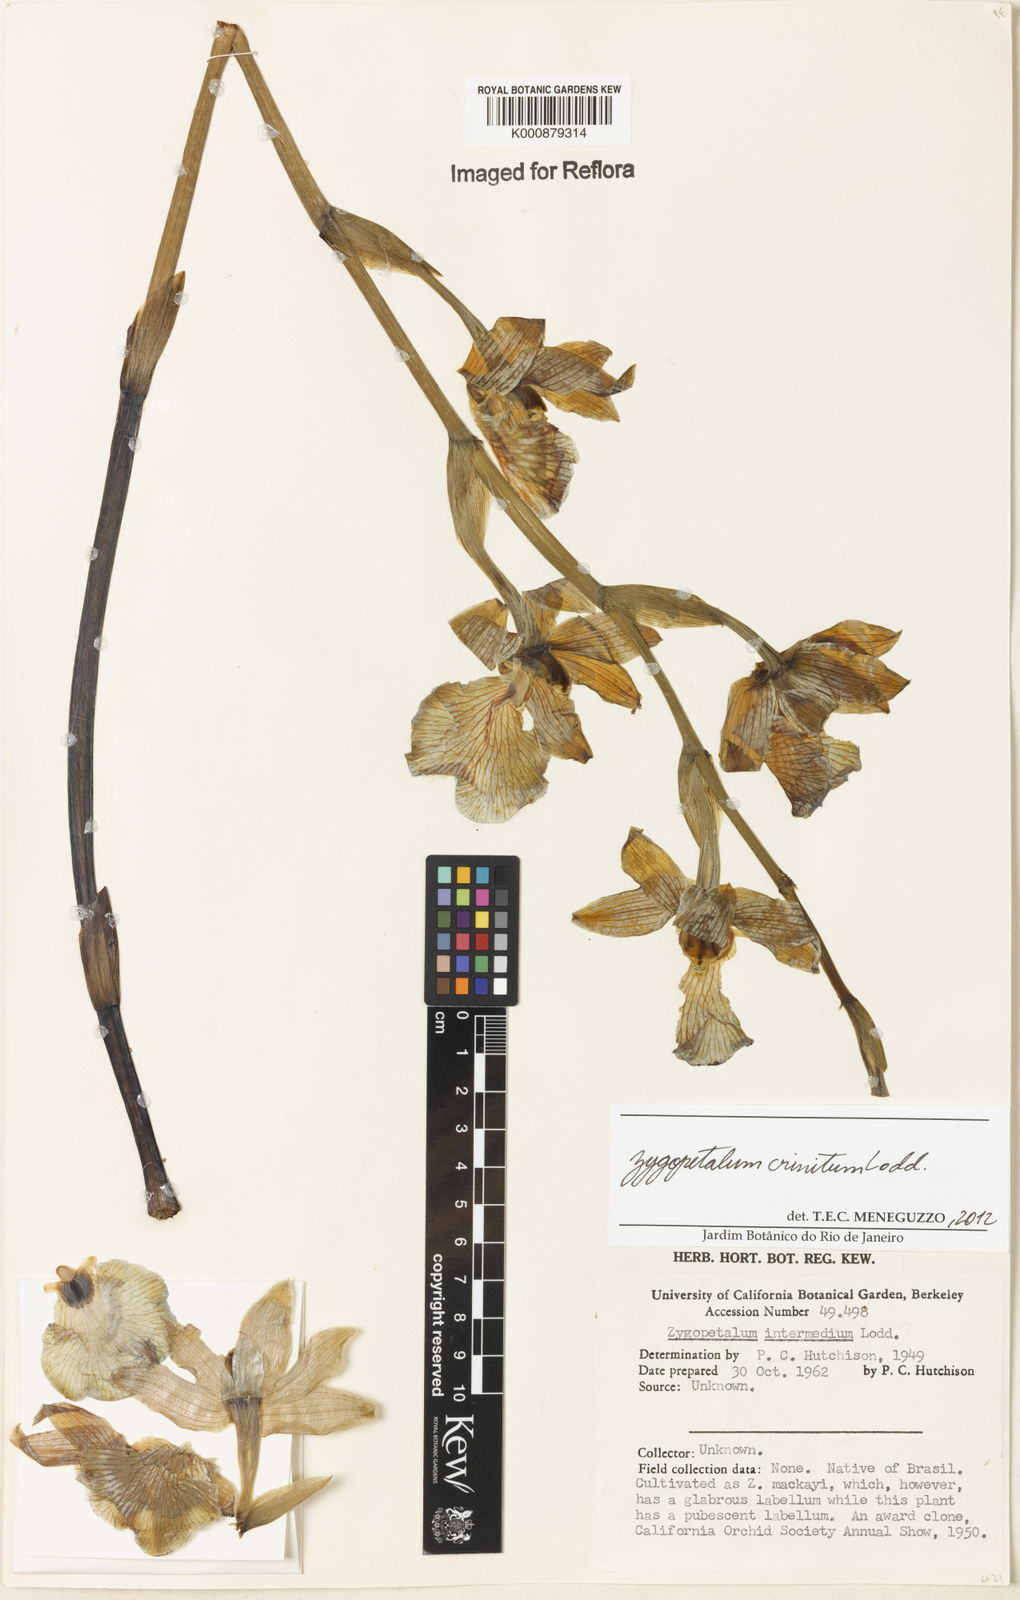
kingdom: Plantae
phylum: Tracheophyta
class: Liliopsida
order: Asparagales
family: Orchidaceae
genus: Zygopetalum
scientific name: Zygopetalum crinitum
